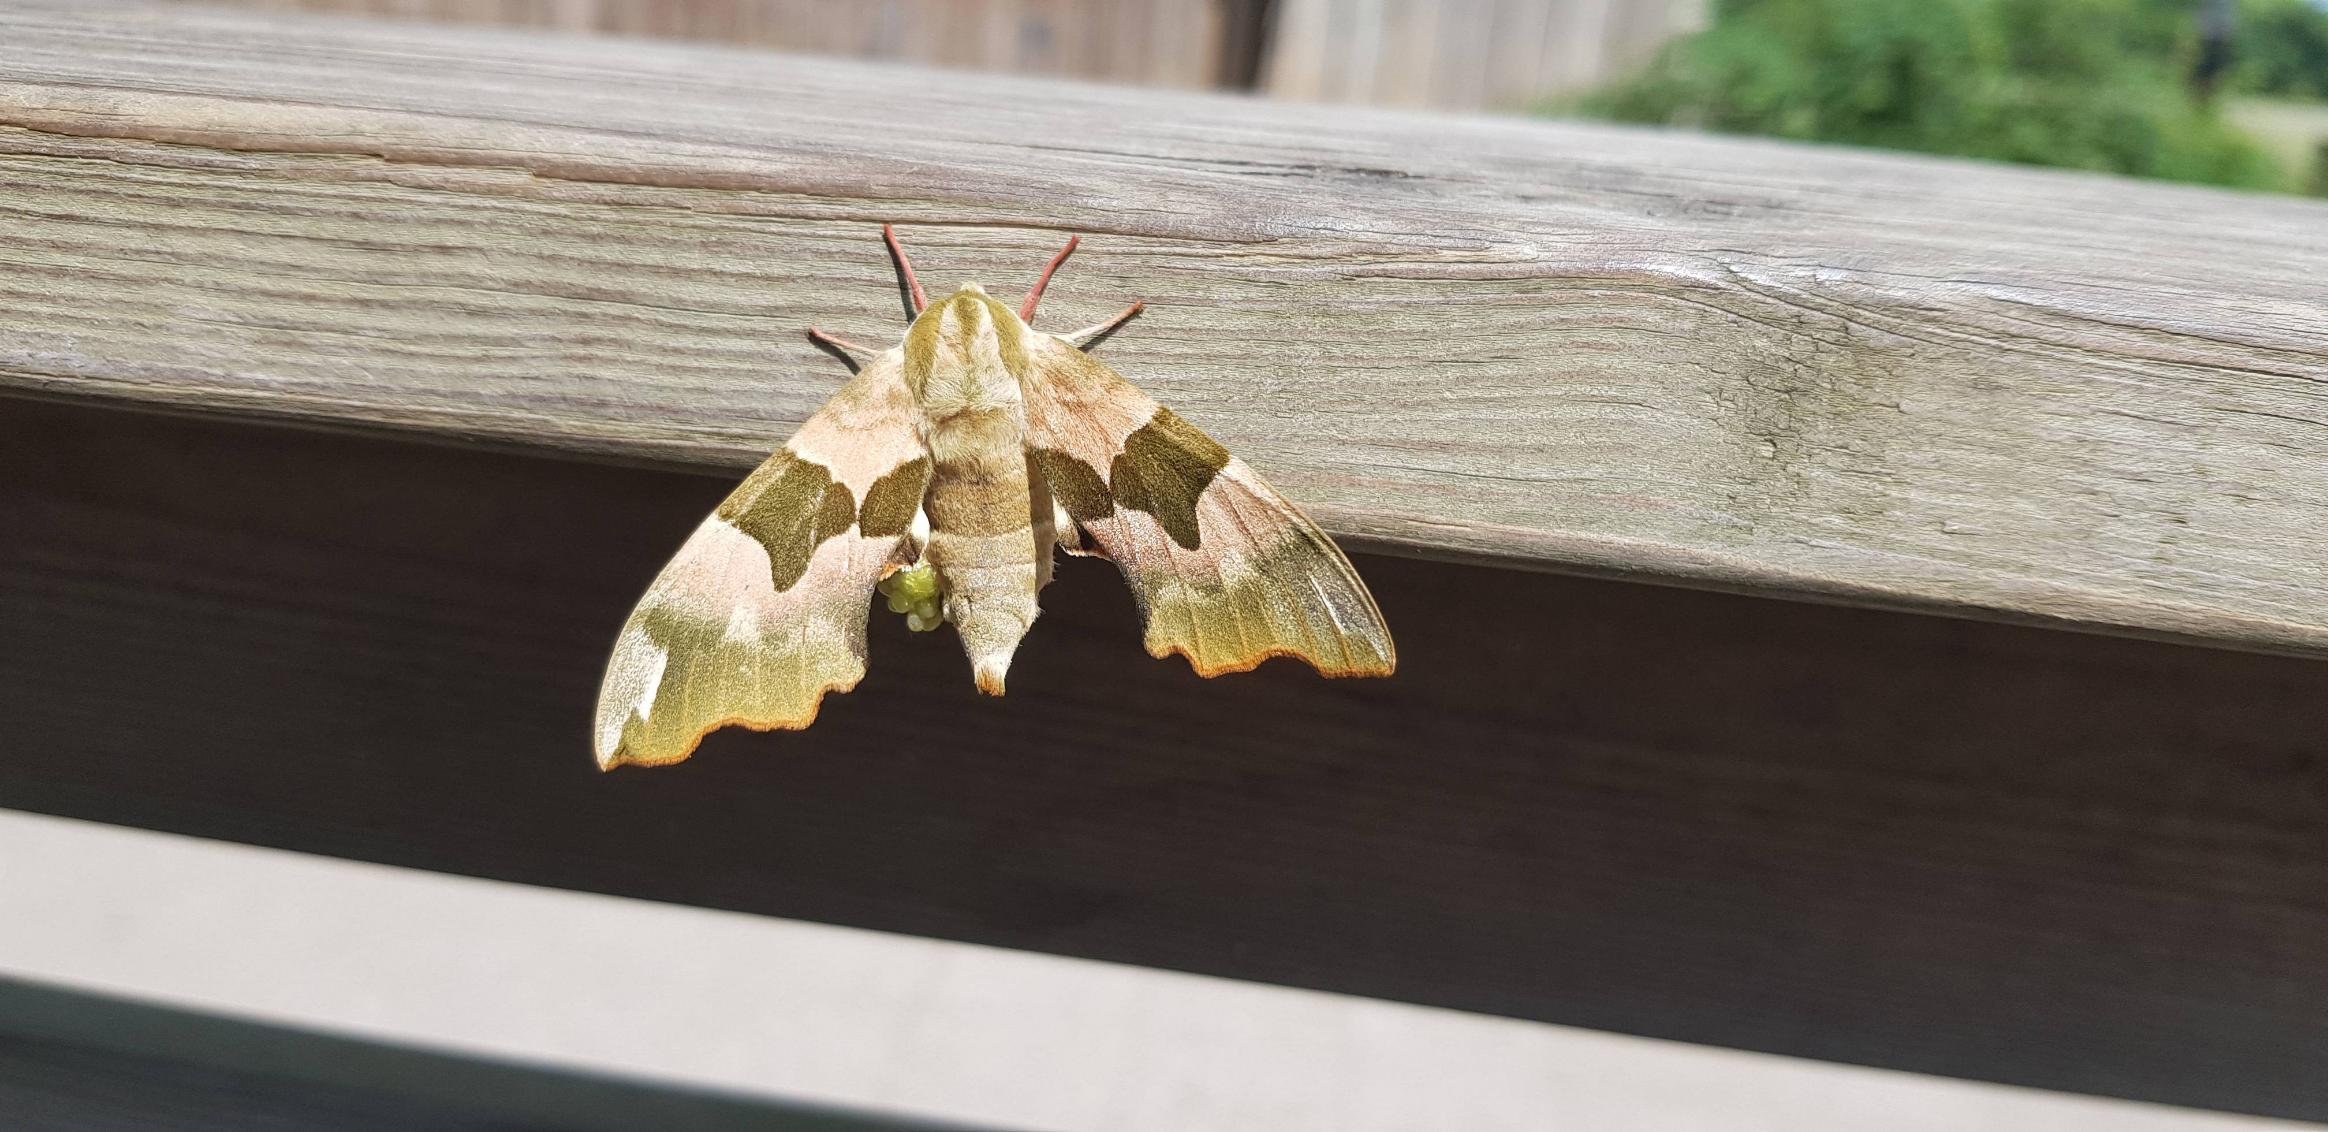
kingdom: Animalia
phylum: Arthropoda
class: Insecta
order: Lepidoptera
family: Sphingidae
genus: Mimas
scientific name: Mimas tiliae
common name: Lindesværmer
